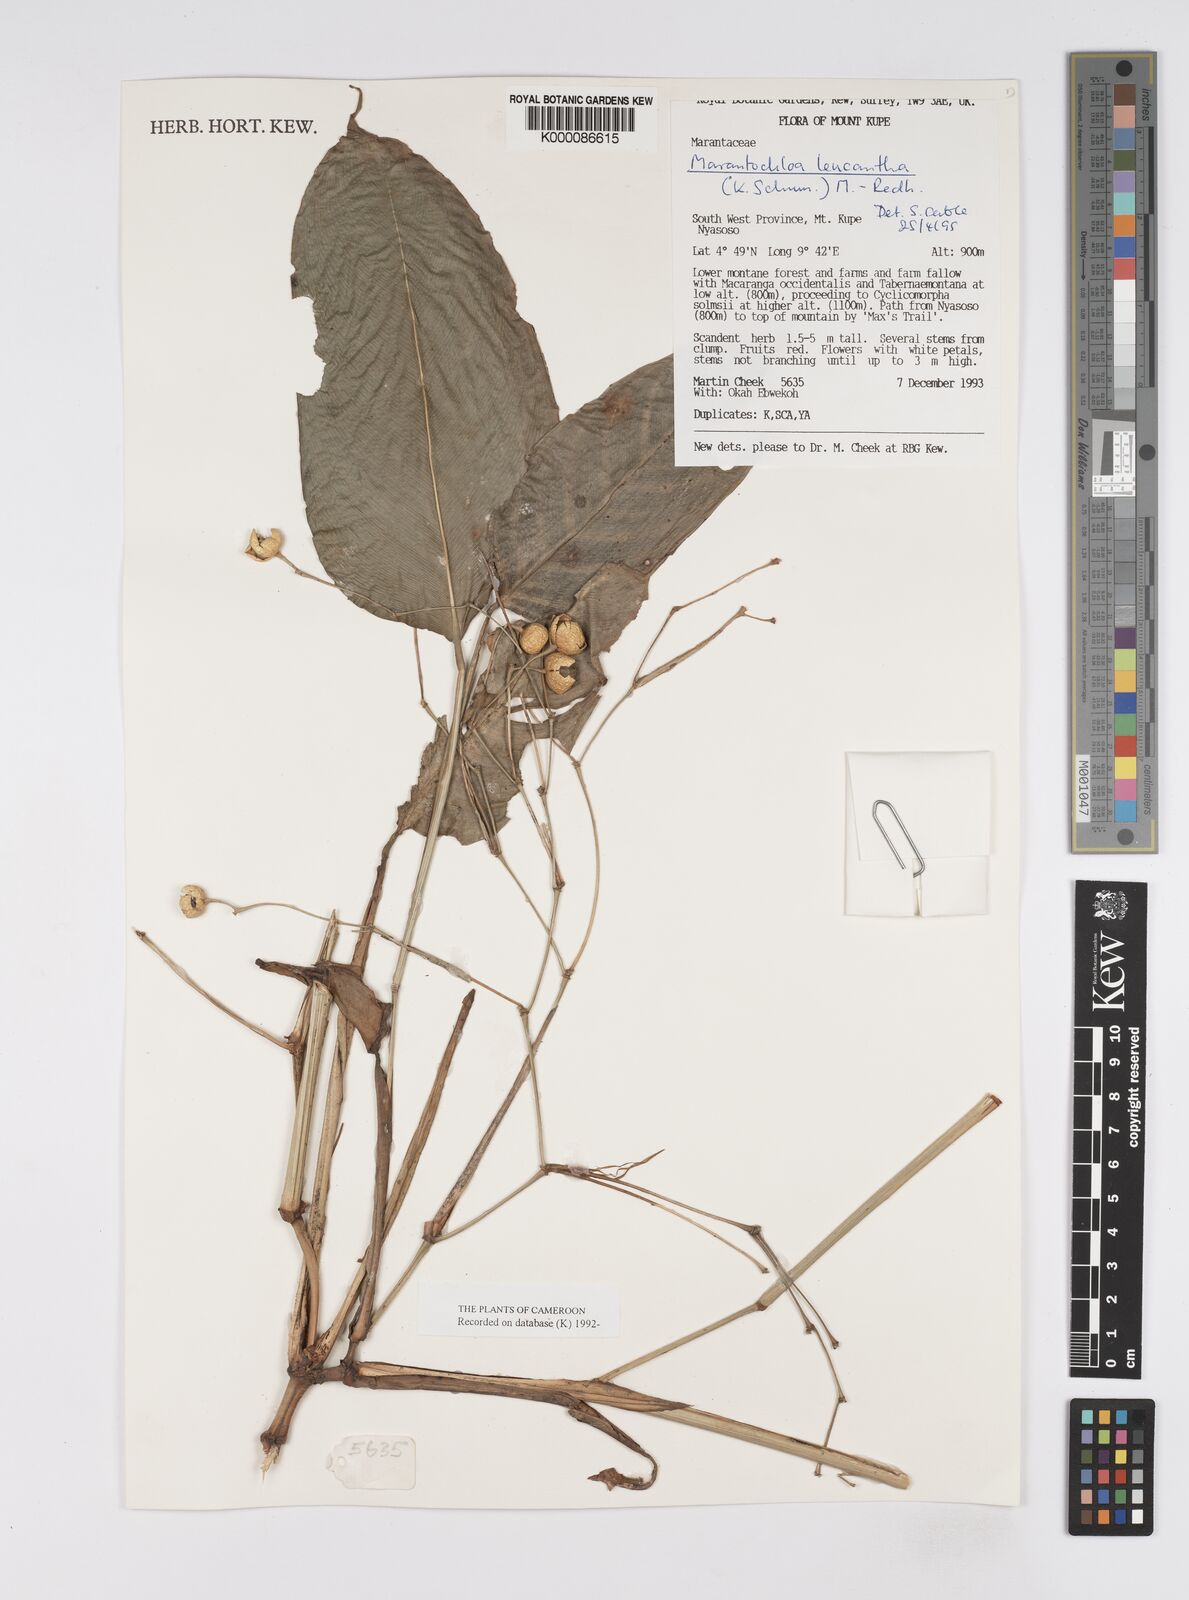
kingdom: Plantae
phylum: Tracheophyta
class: Liliopsida
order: Zingiberales
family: Marantaceae
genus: Marantochloa
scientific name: Marantochloa leucantha
